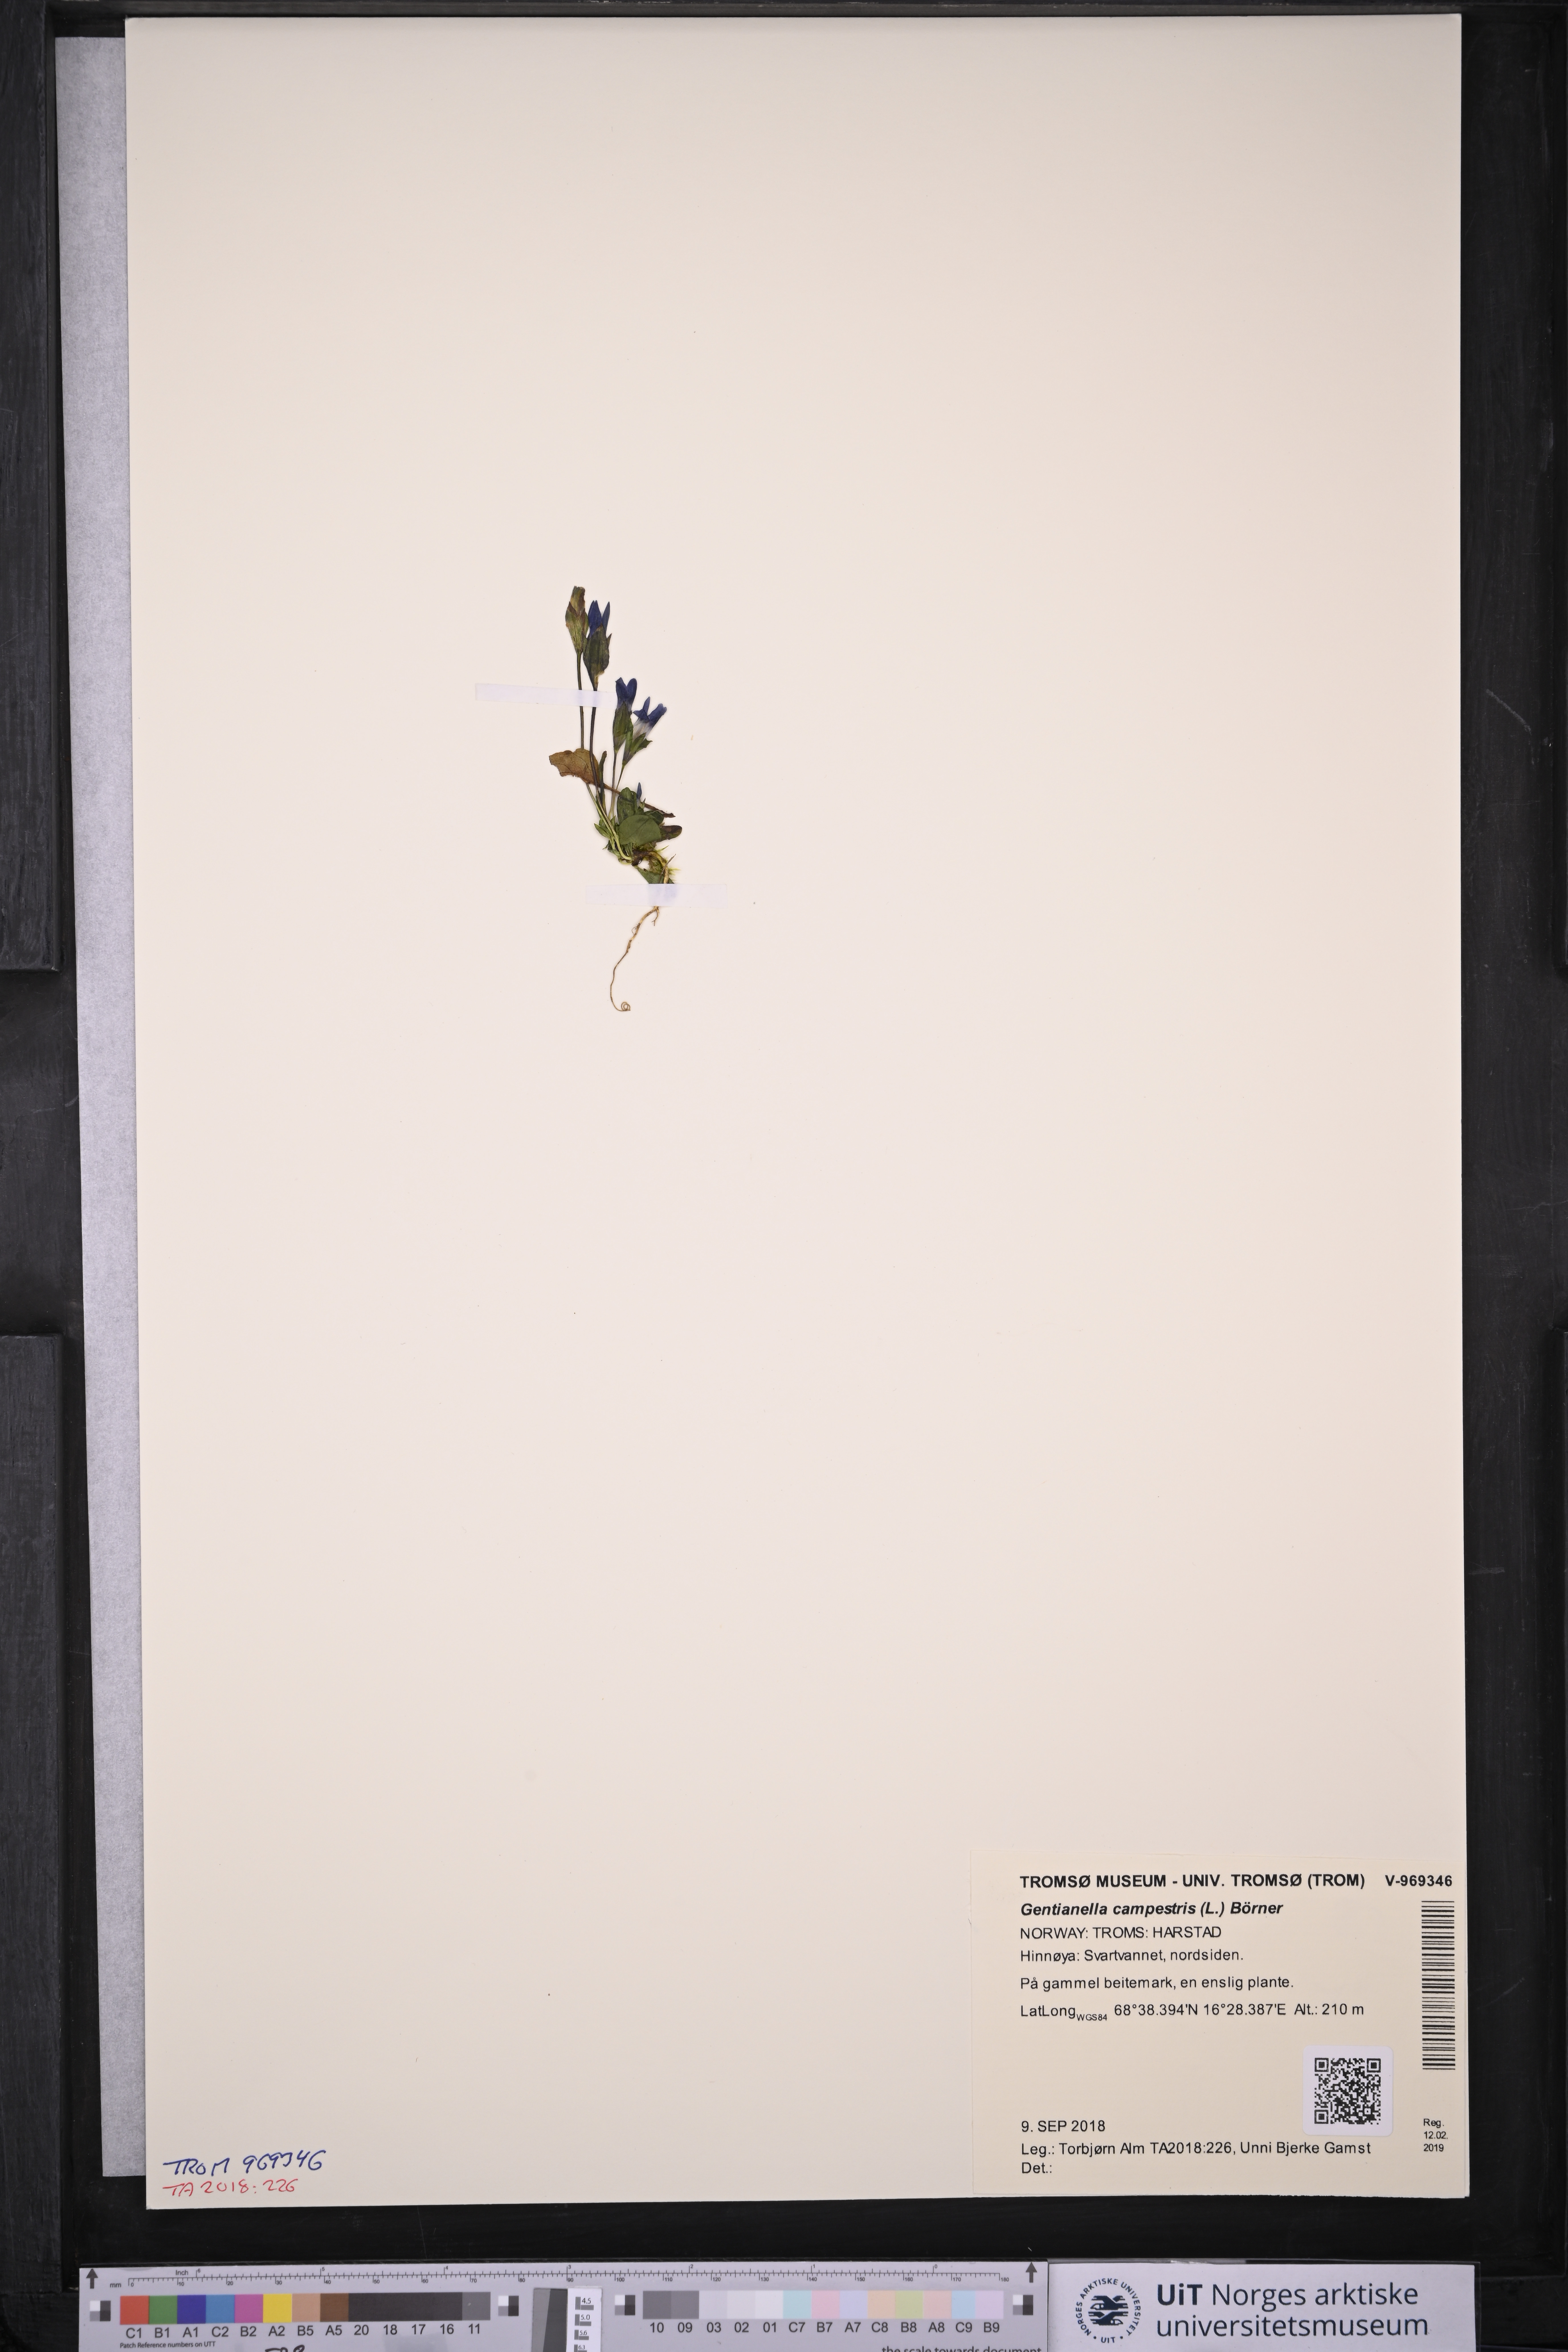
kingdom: Plantae
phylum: Tracheophyta
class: Magnoliopsida
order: Gentianales
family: Gentianaceae
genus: Gentianella
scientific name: Gentianella campestris
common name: Field gentian
